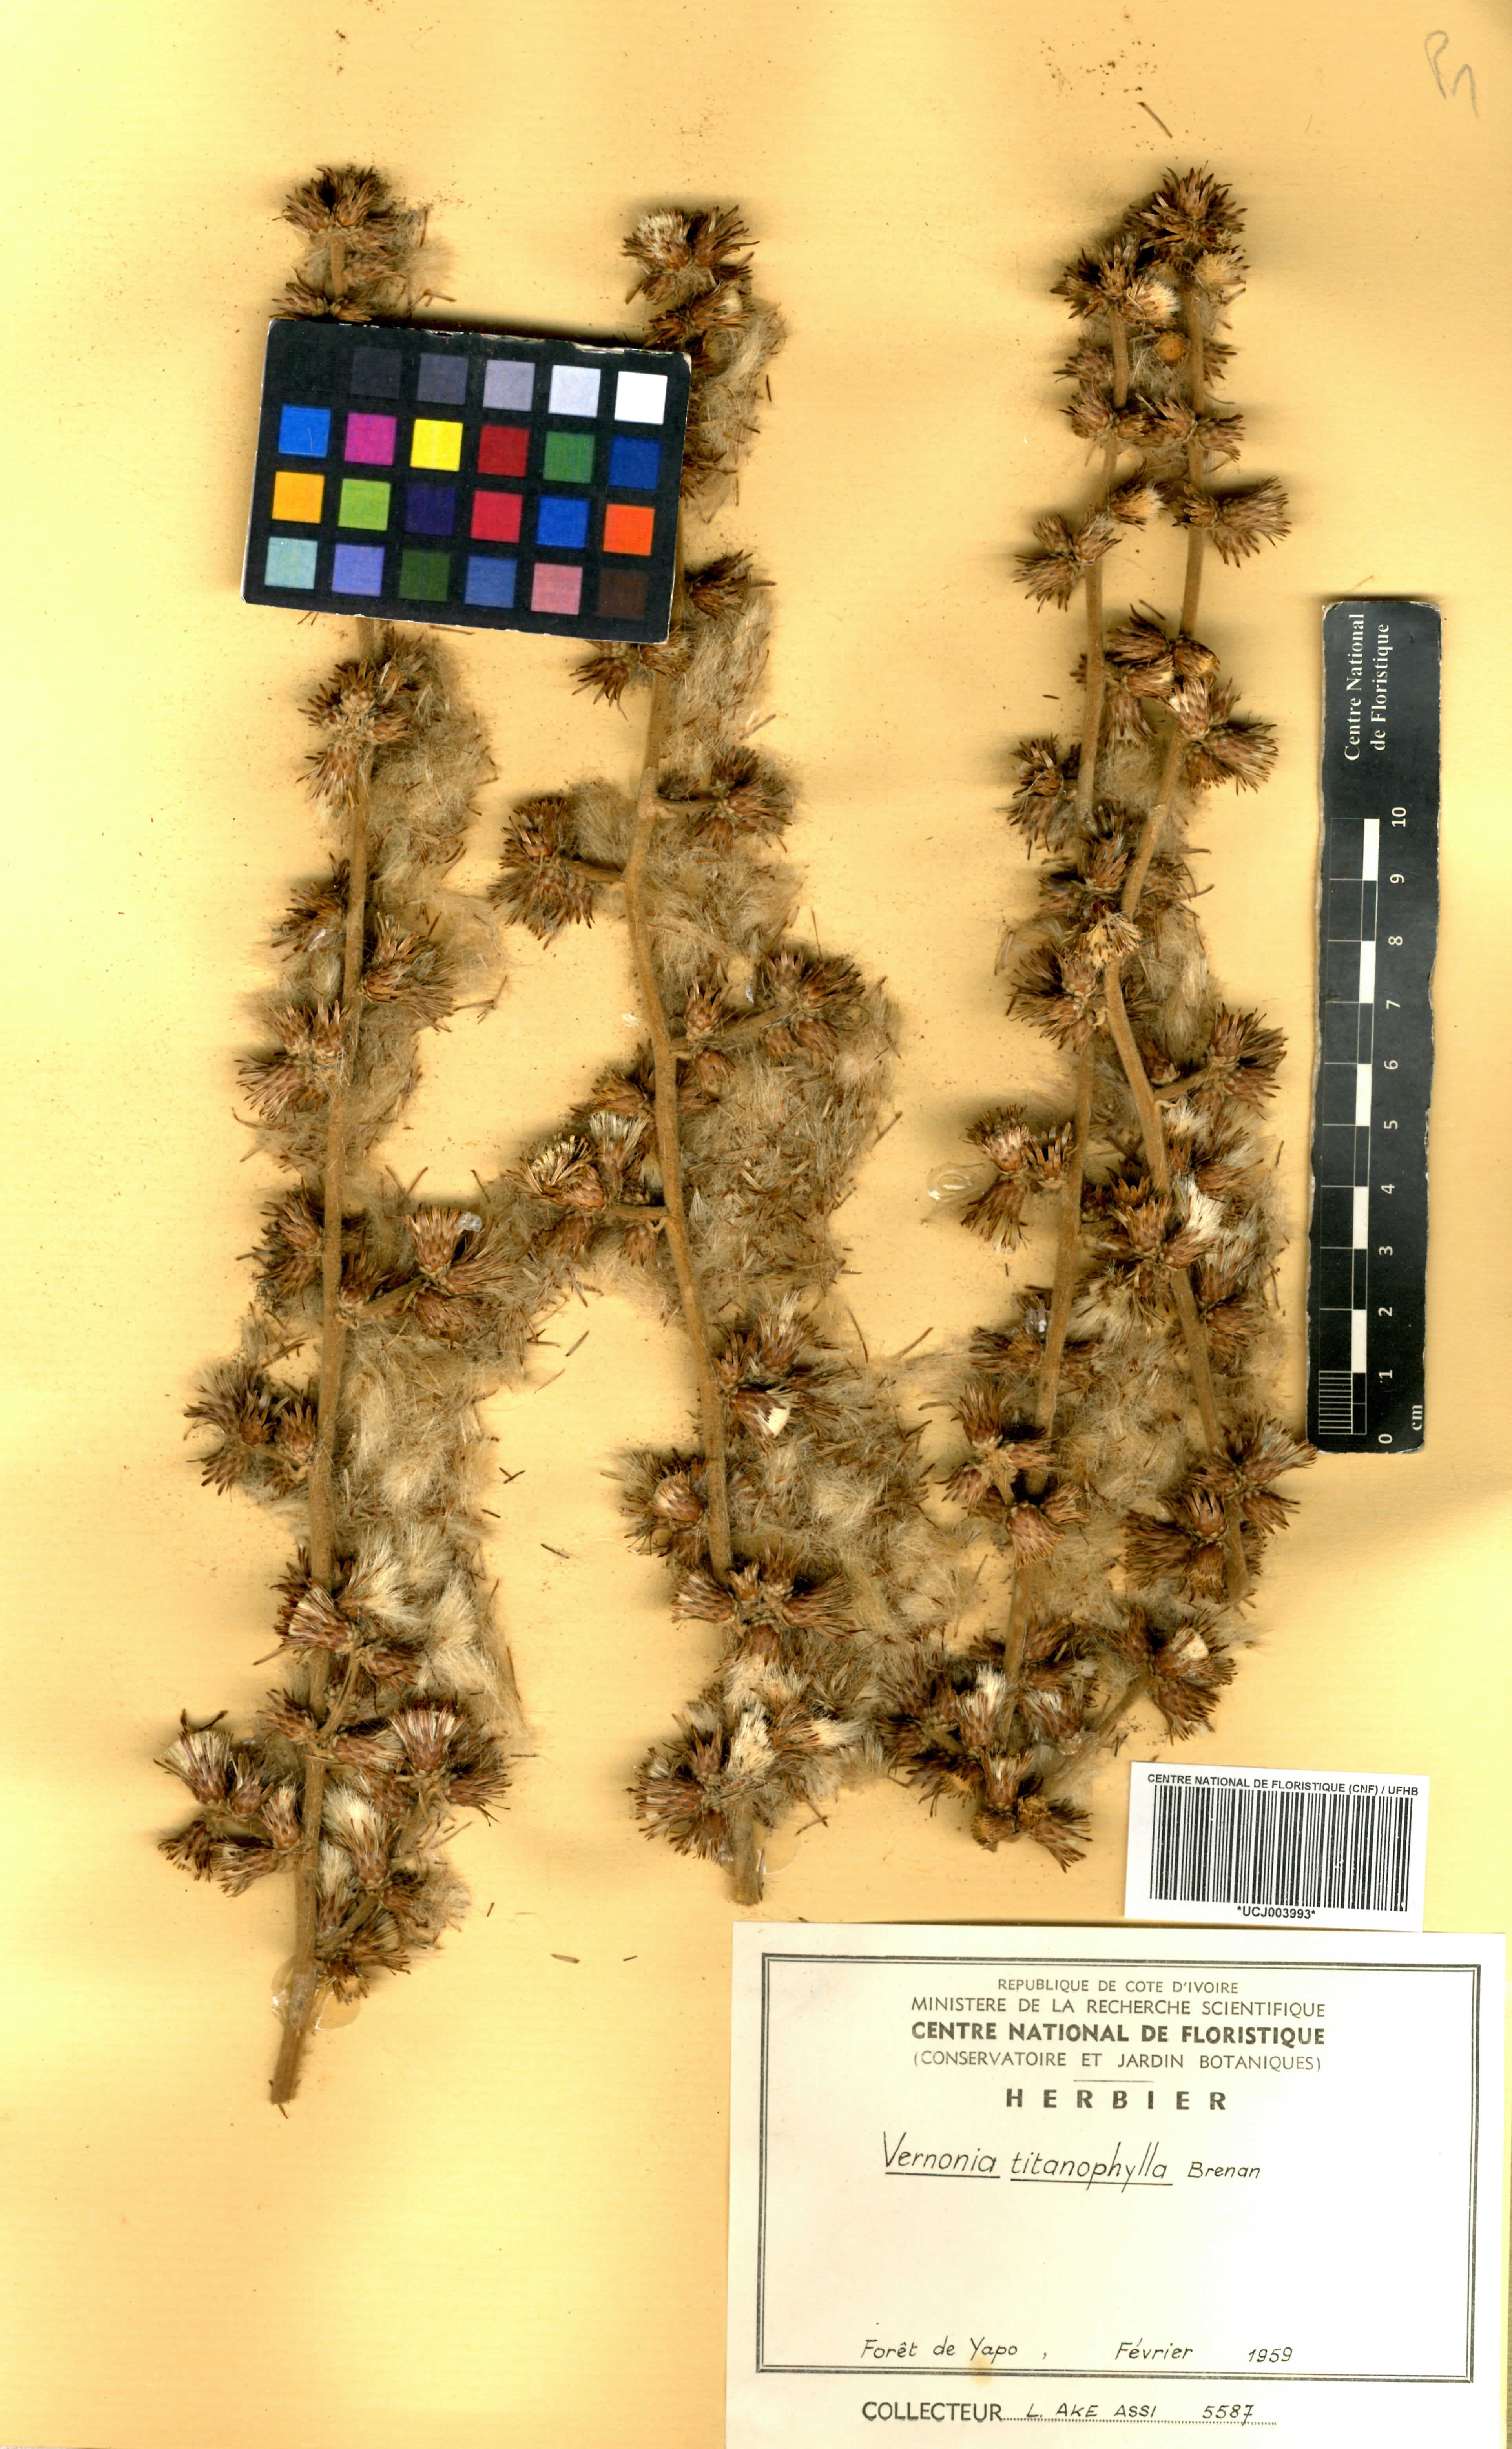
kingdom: Plantae
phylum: Tracheophyta
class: Magnoliopsida
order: Asterales
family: Asteraceae
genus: Brenandendron
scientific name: Brenandendron titanophyllum
